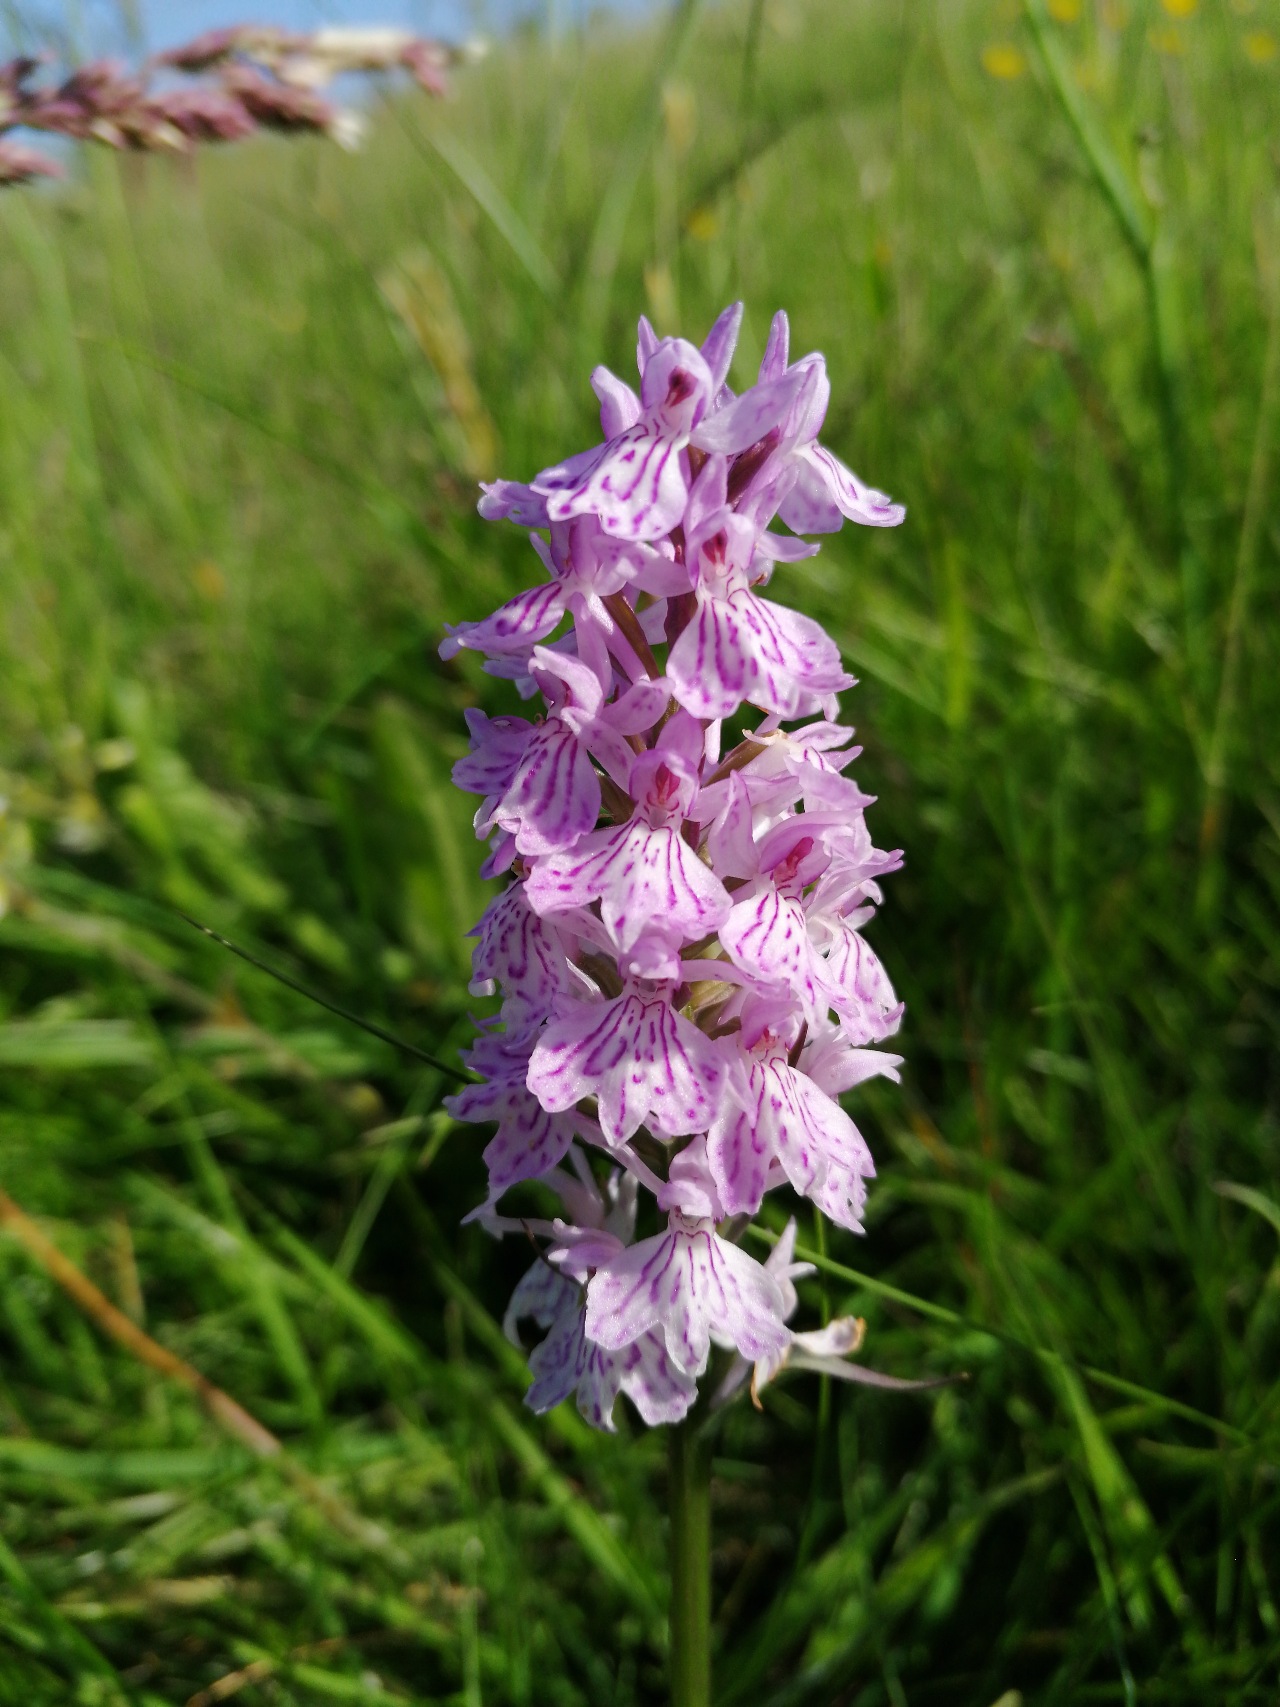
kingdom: Plantae
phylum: Tracheophyta
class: Liliopsida
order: Asparagales
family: Orchidaceae
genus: Dactylorhiza
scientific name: Dactylorhiza maculata
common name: Plettet gøgeurt
